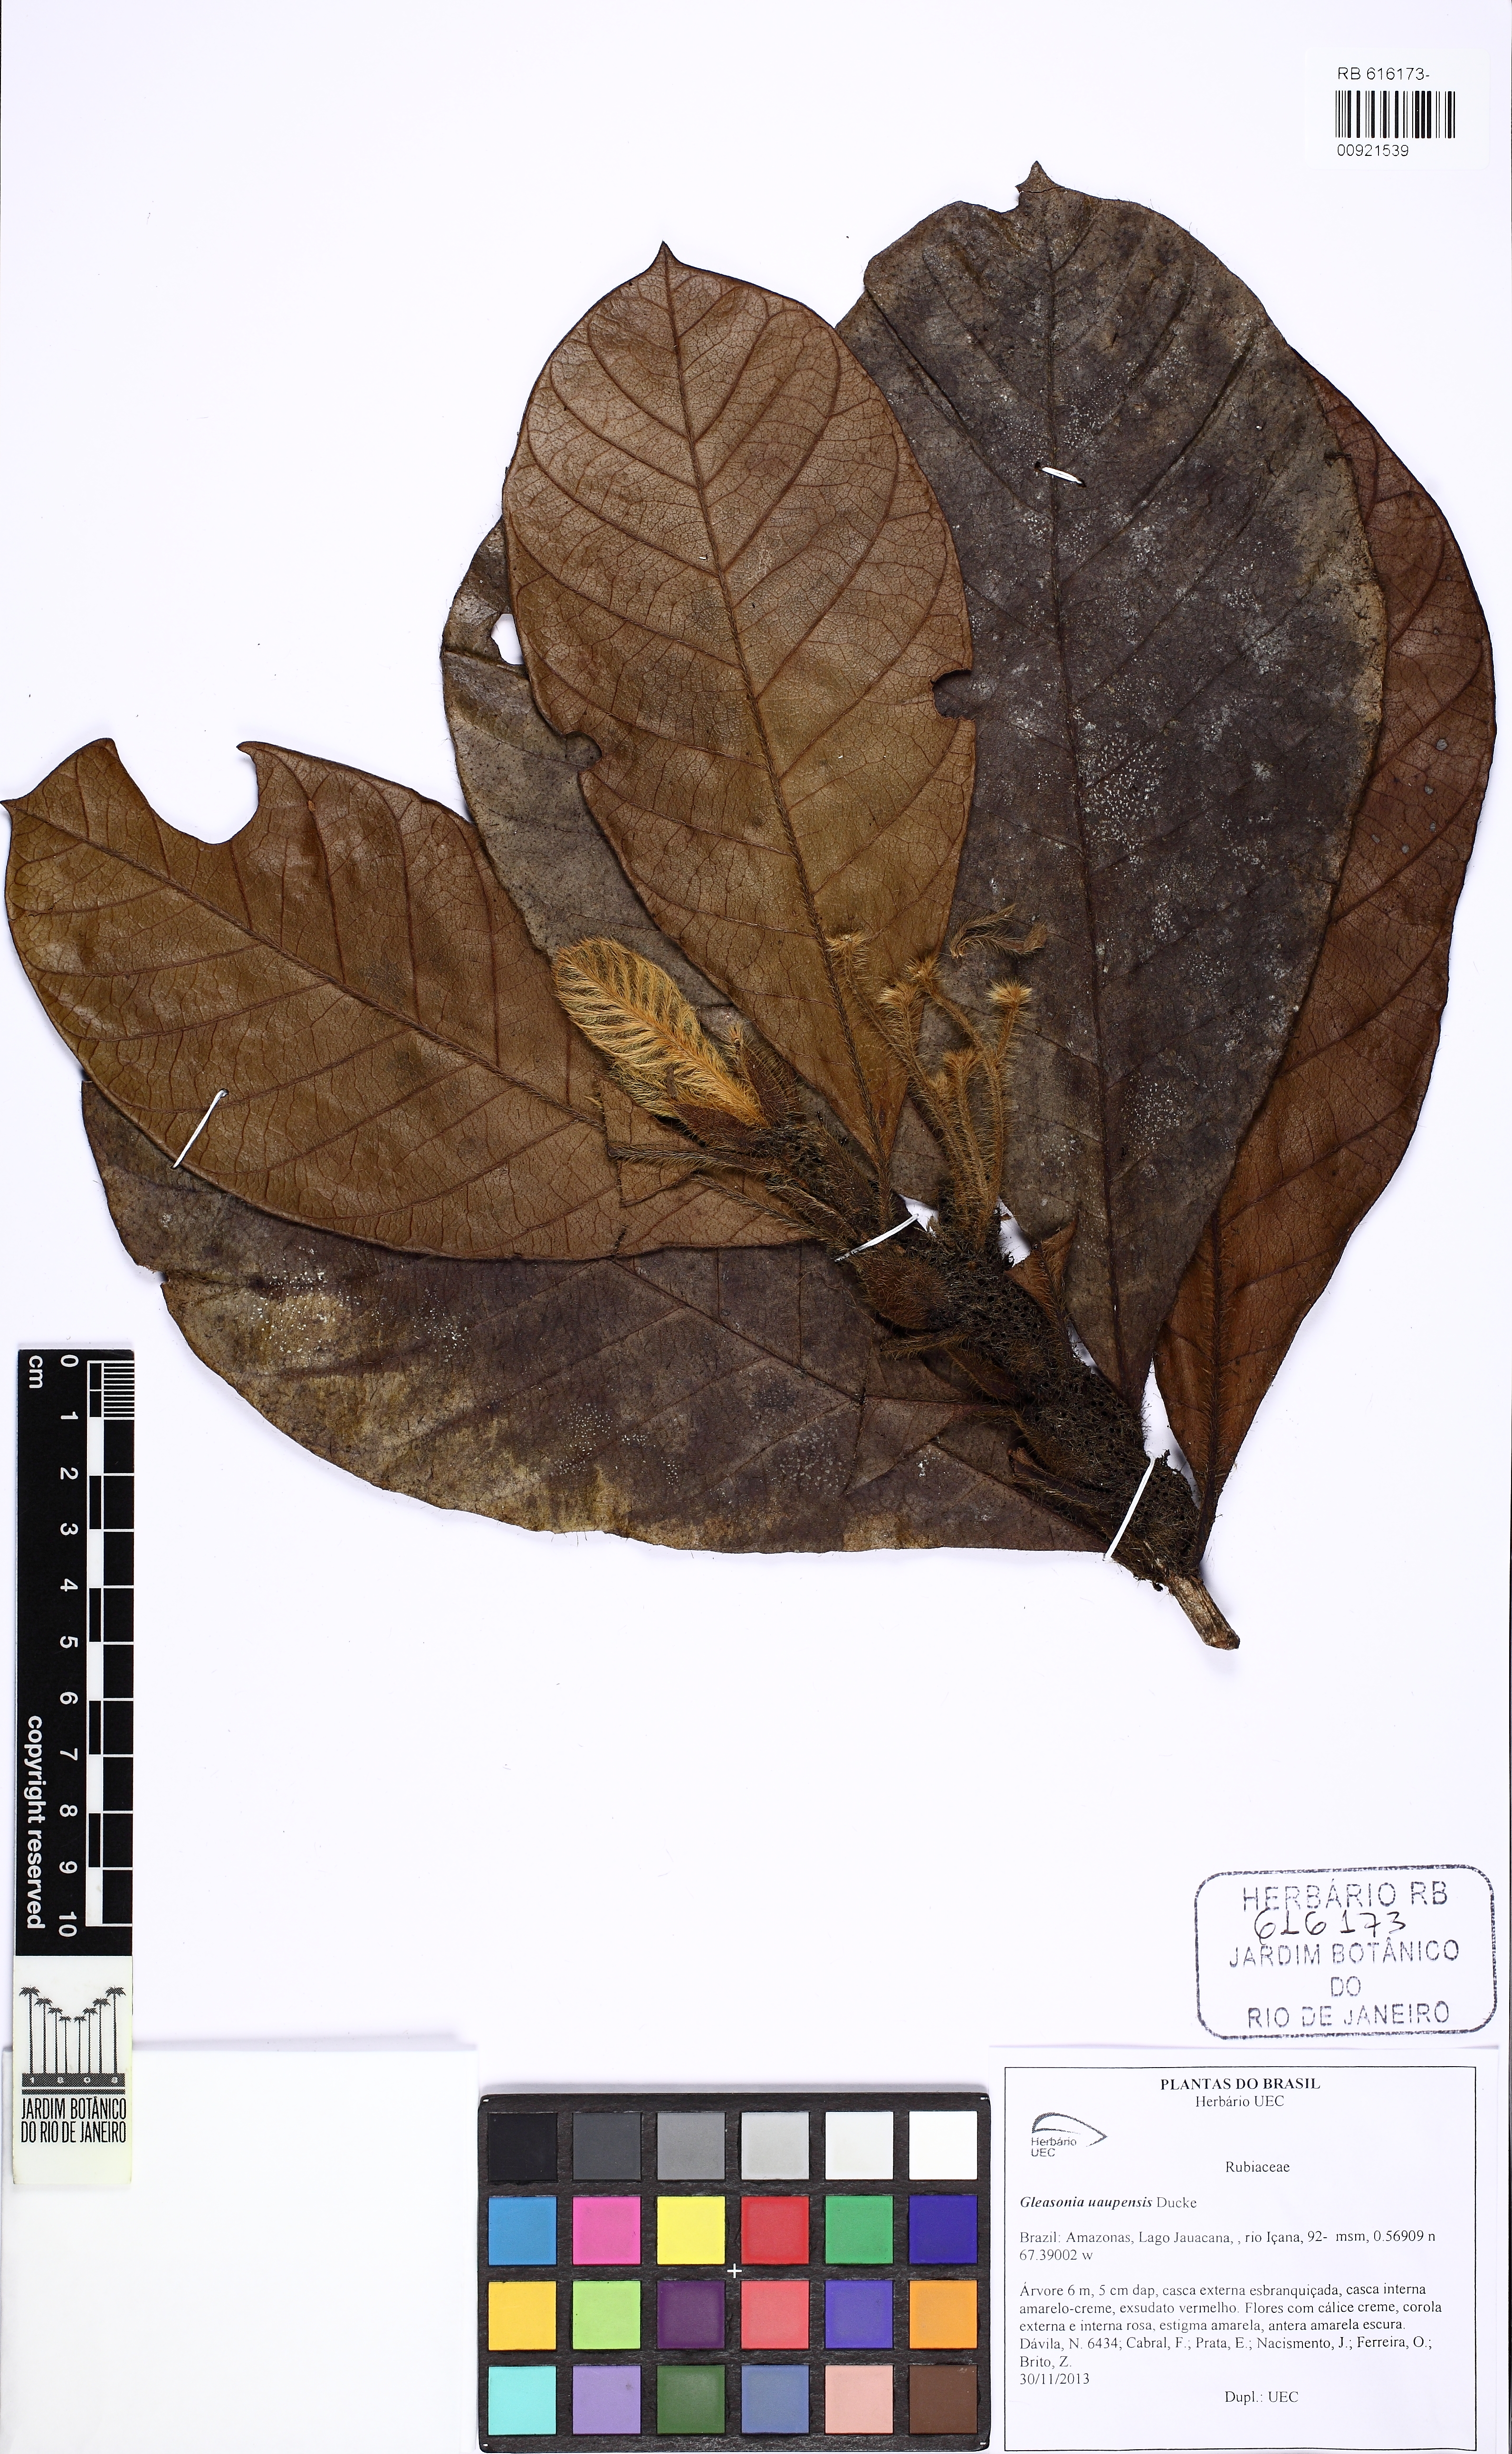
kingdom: Plantae
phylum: Tracheophyta
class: Magnoliopsida
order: Gentianales
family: Rubiaceae
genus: Gleasonia
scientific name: Gleasonia uaupensis
